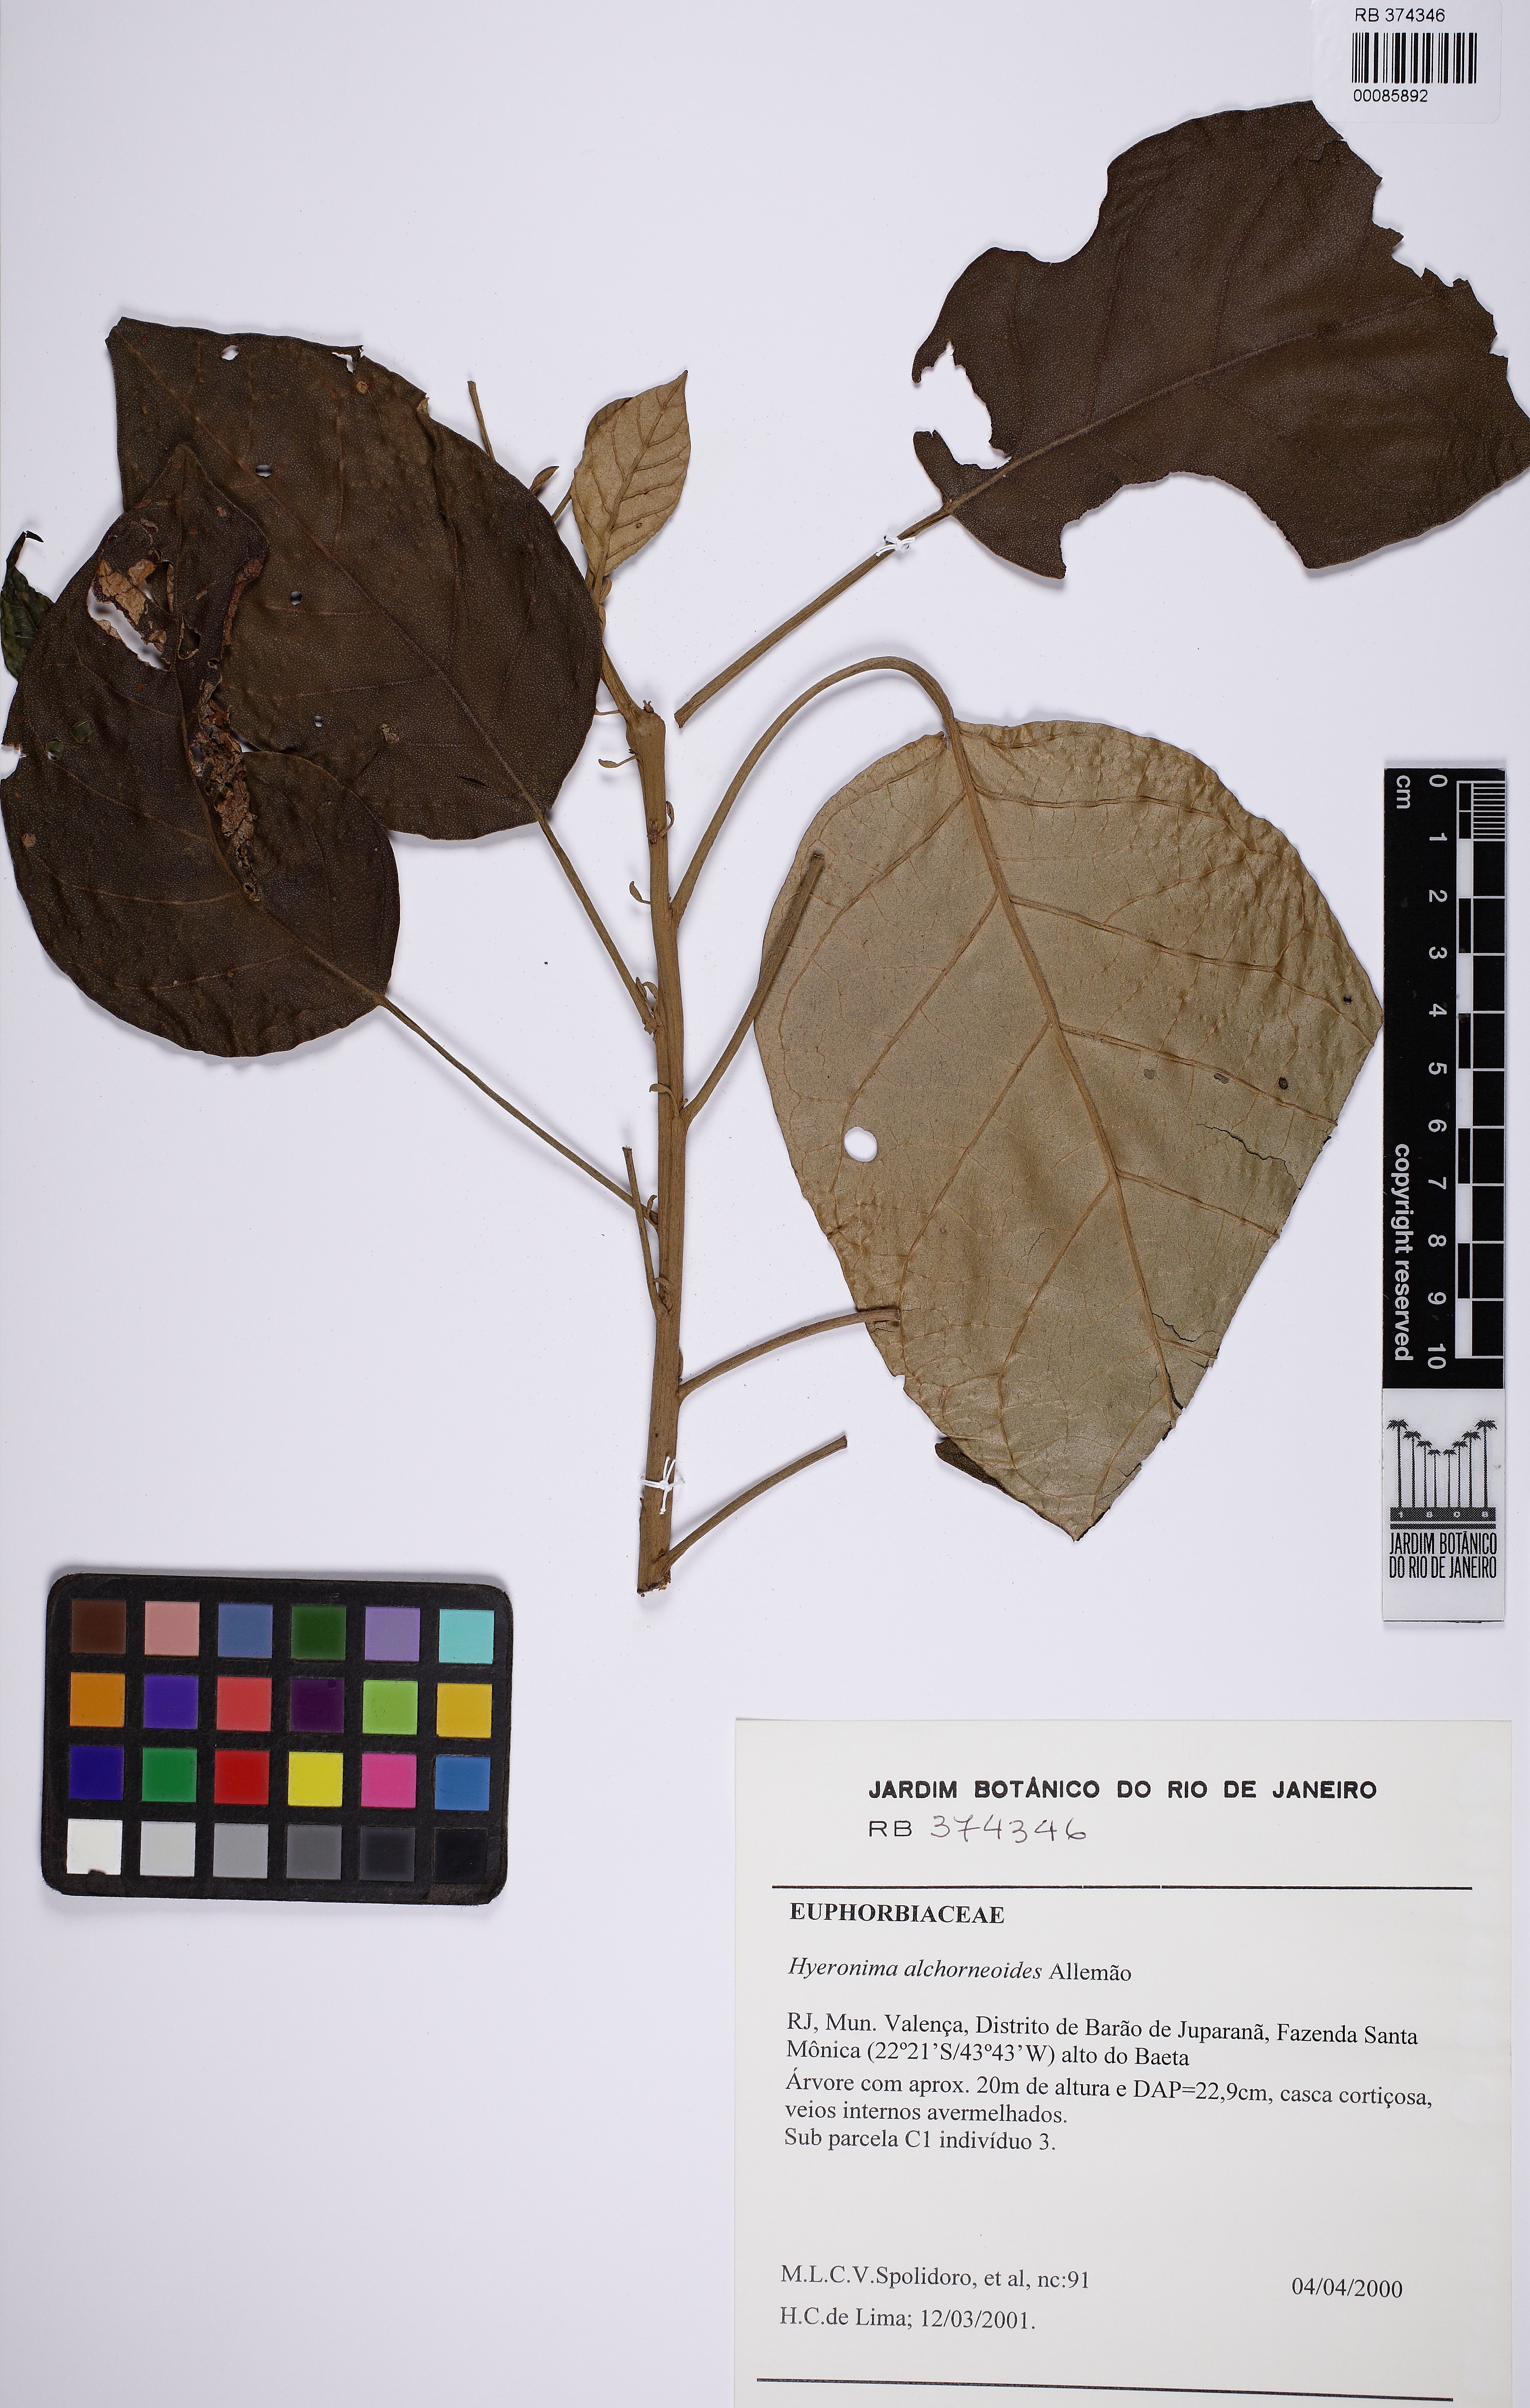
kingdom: Plantae
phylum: Tracheophyta
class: Magnoliopsida
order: Malpighiales
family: Phyllanthaceae
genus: Hieronyma
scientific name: Hieronyma alchorneoides
